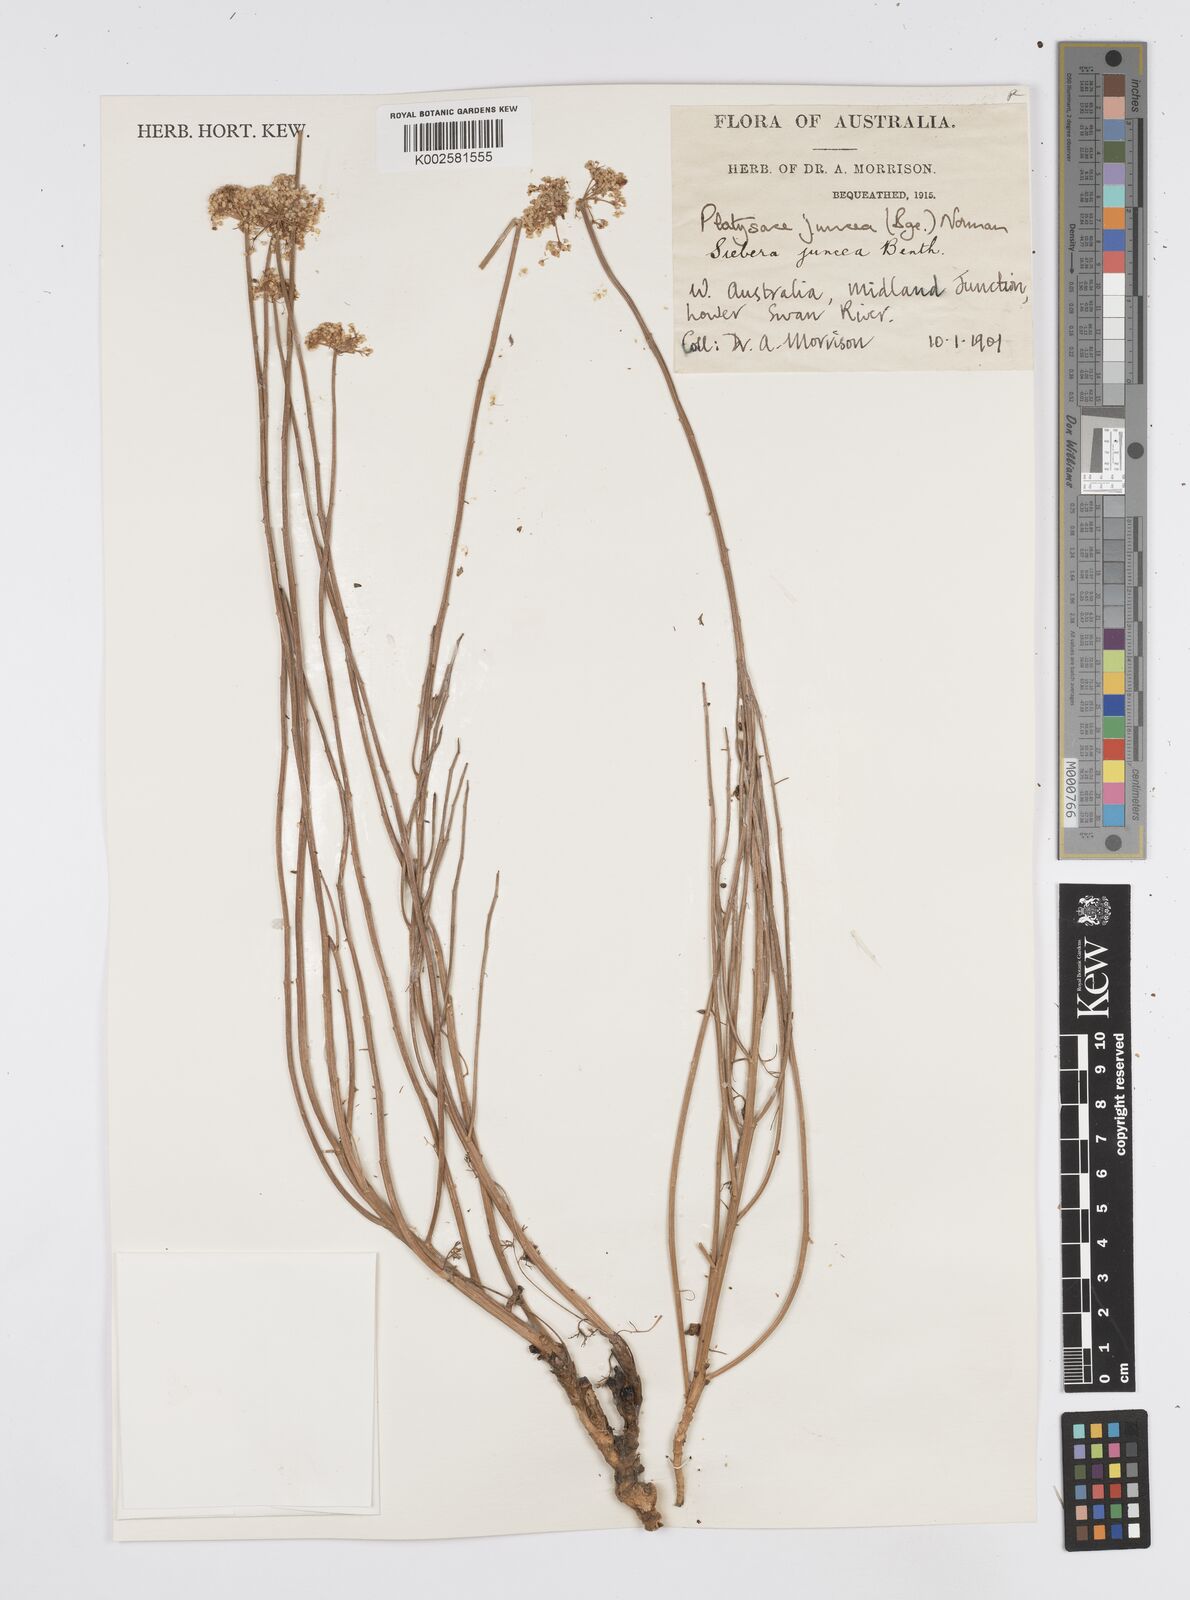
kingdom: Plantae
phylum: Tracheophyta
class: Magnoliopsida
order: Apiales
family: Apiaceae
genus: Platysace
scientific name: Platysace juncea
